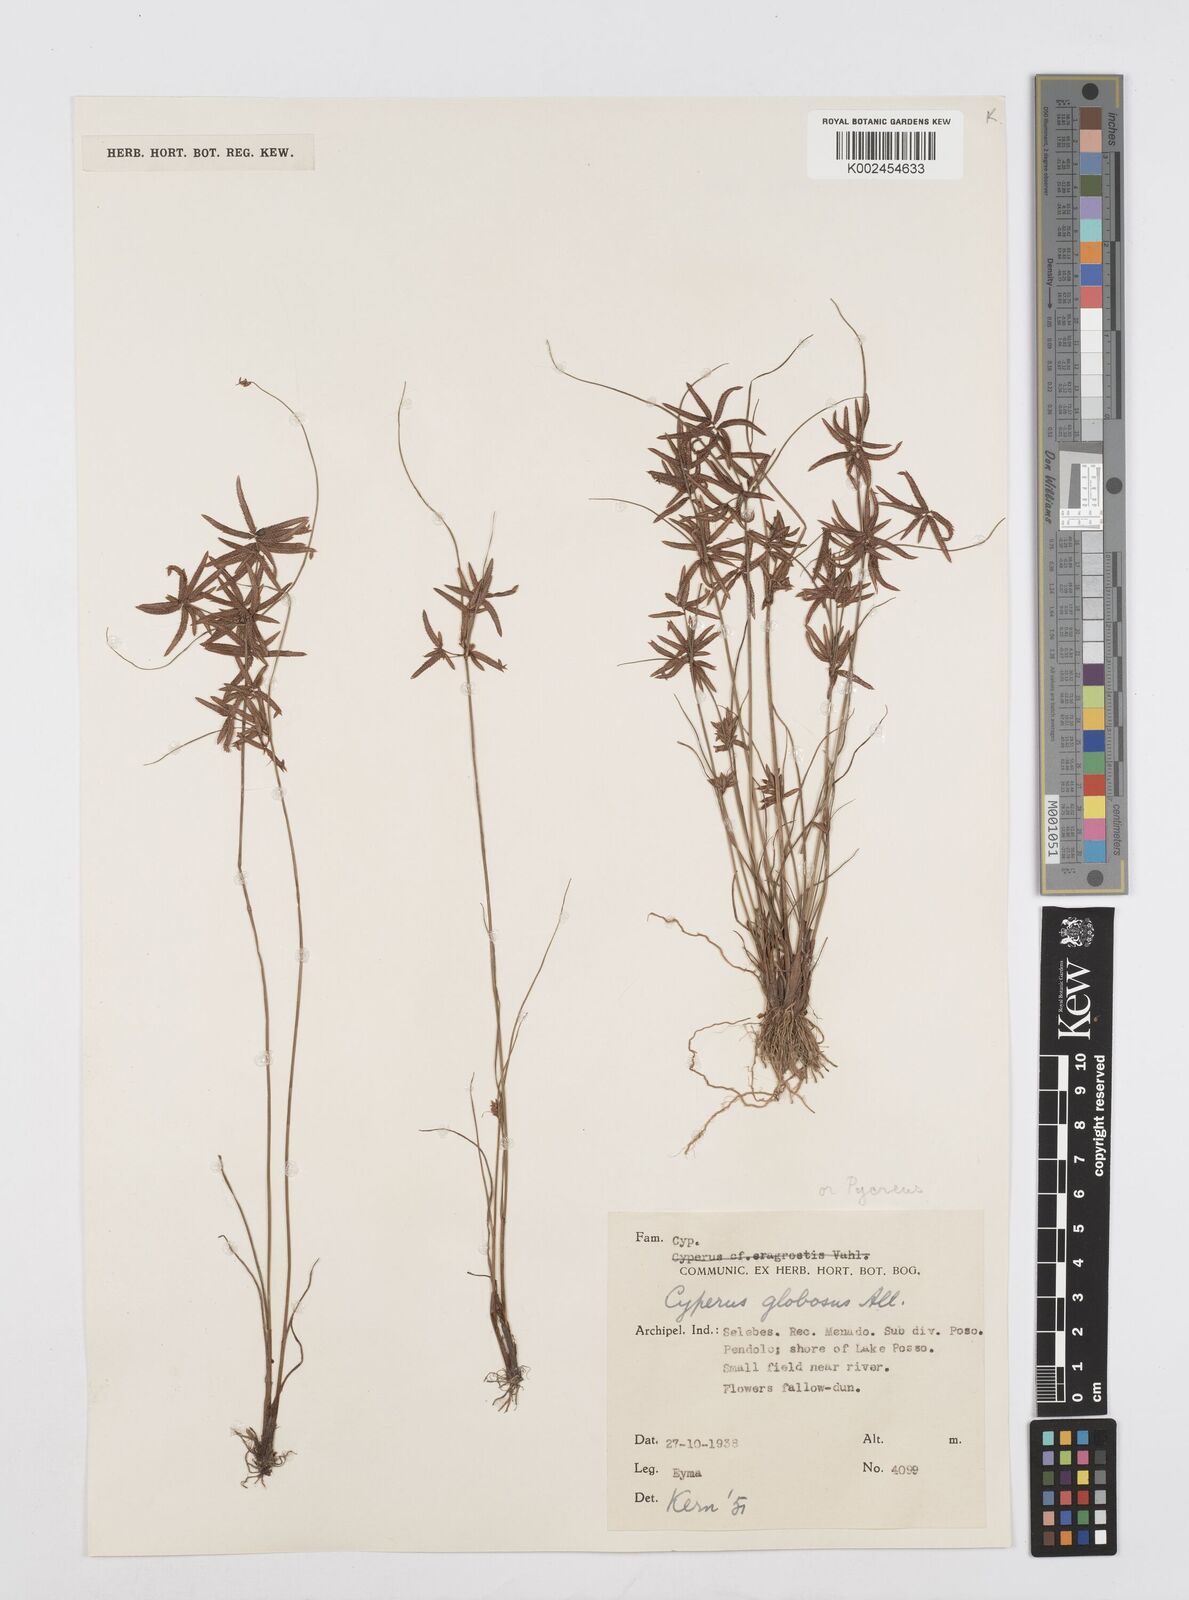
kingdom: Plantae
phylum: Tracheophyta
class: Liliopsida
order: Poales
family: Cyperaceae
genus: Cyperus
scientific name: Cyperus flavidus
